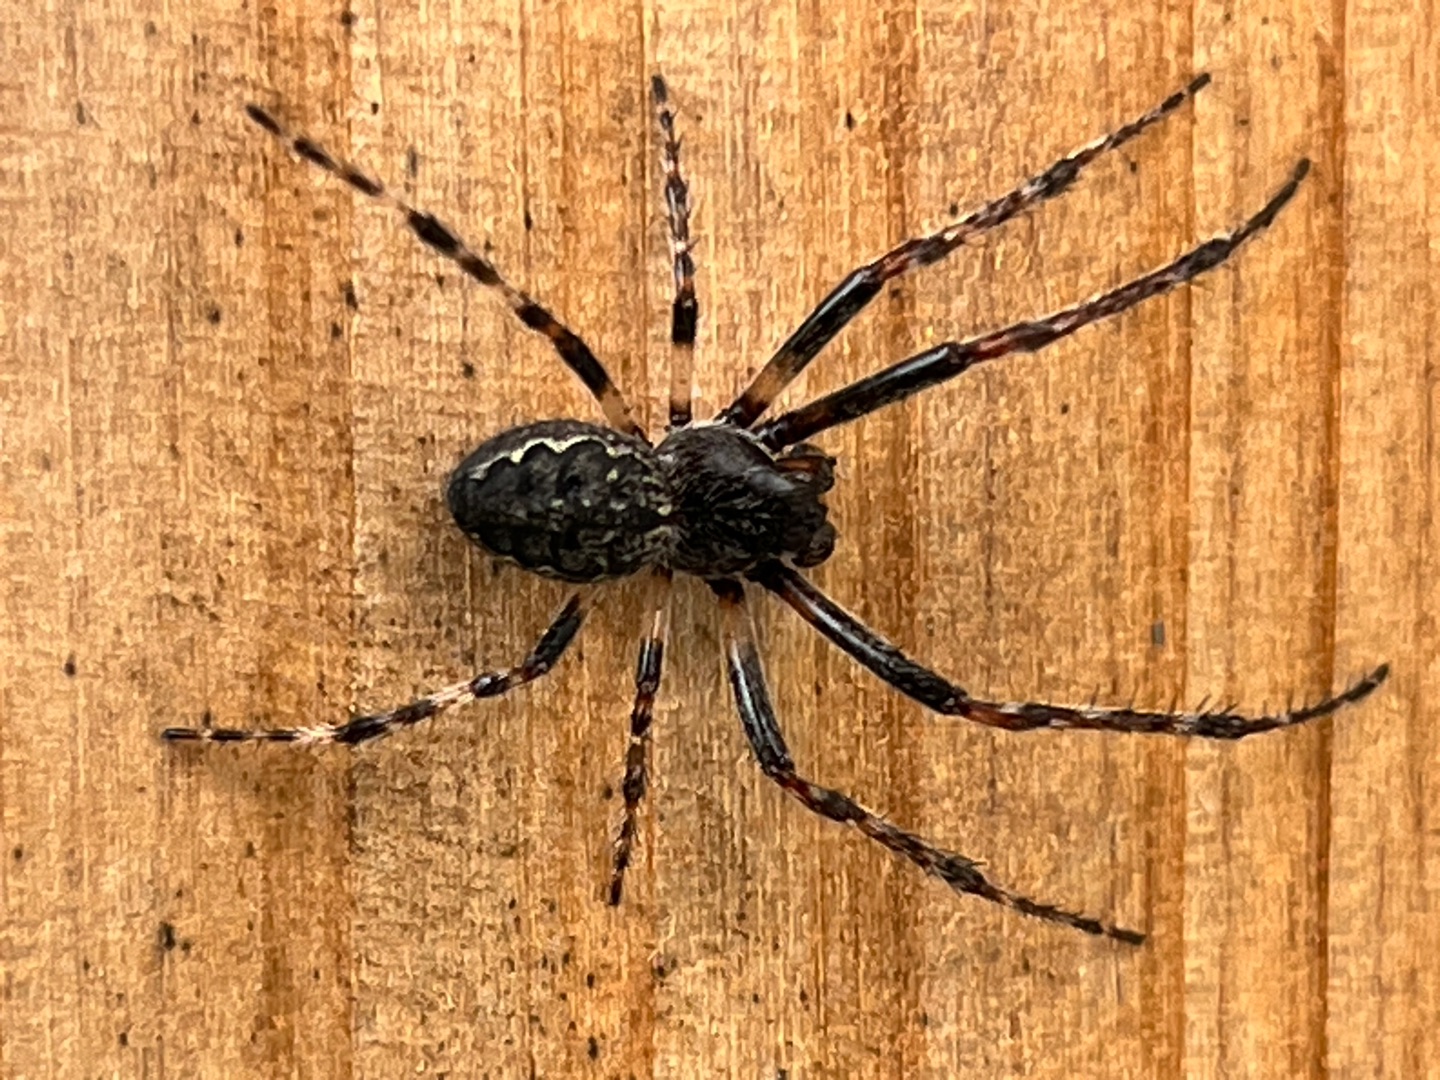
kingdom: Animalia
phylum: Arthropoda
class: Arachnida
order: Araneae
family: Araneidae
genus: Nuctenea
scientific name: Nuctenea umbratica
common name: Flad hjulspinder
